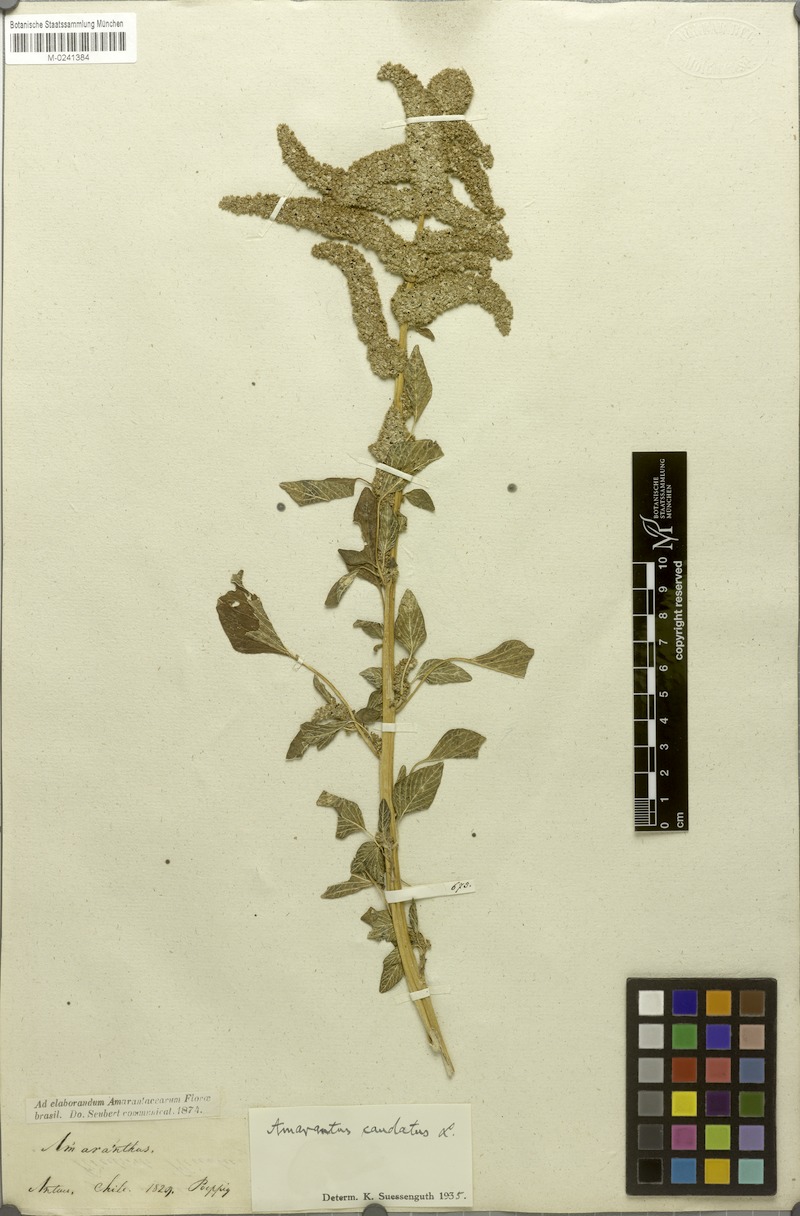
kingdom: Plantae
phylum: Tracheophyta
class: Magnoliopsida
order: Caryophyllales
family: Amaranthaceae
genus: Amaranthus
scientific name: Amaranthus caudatus
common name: Love-lies-bleeding
